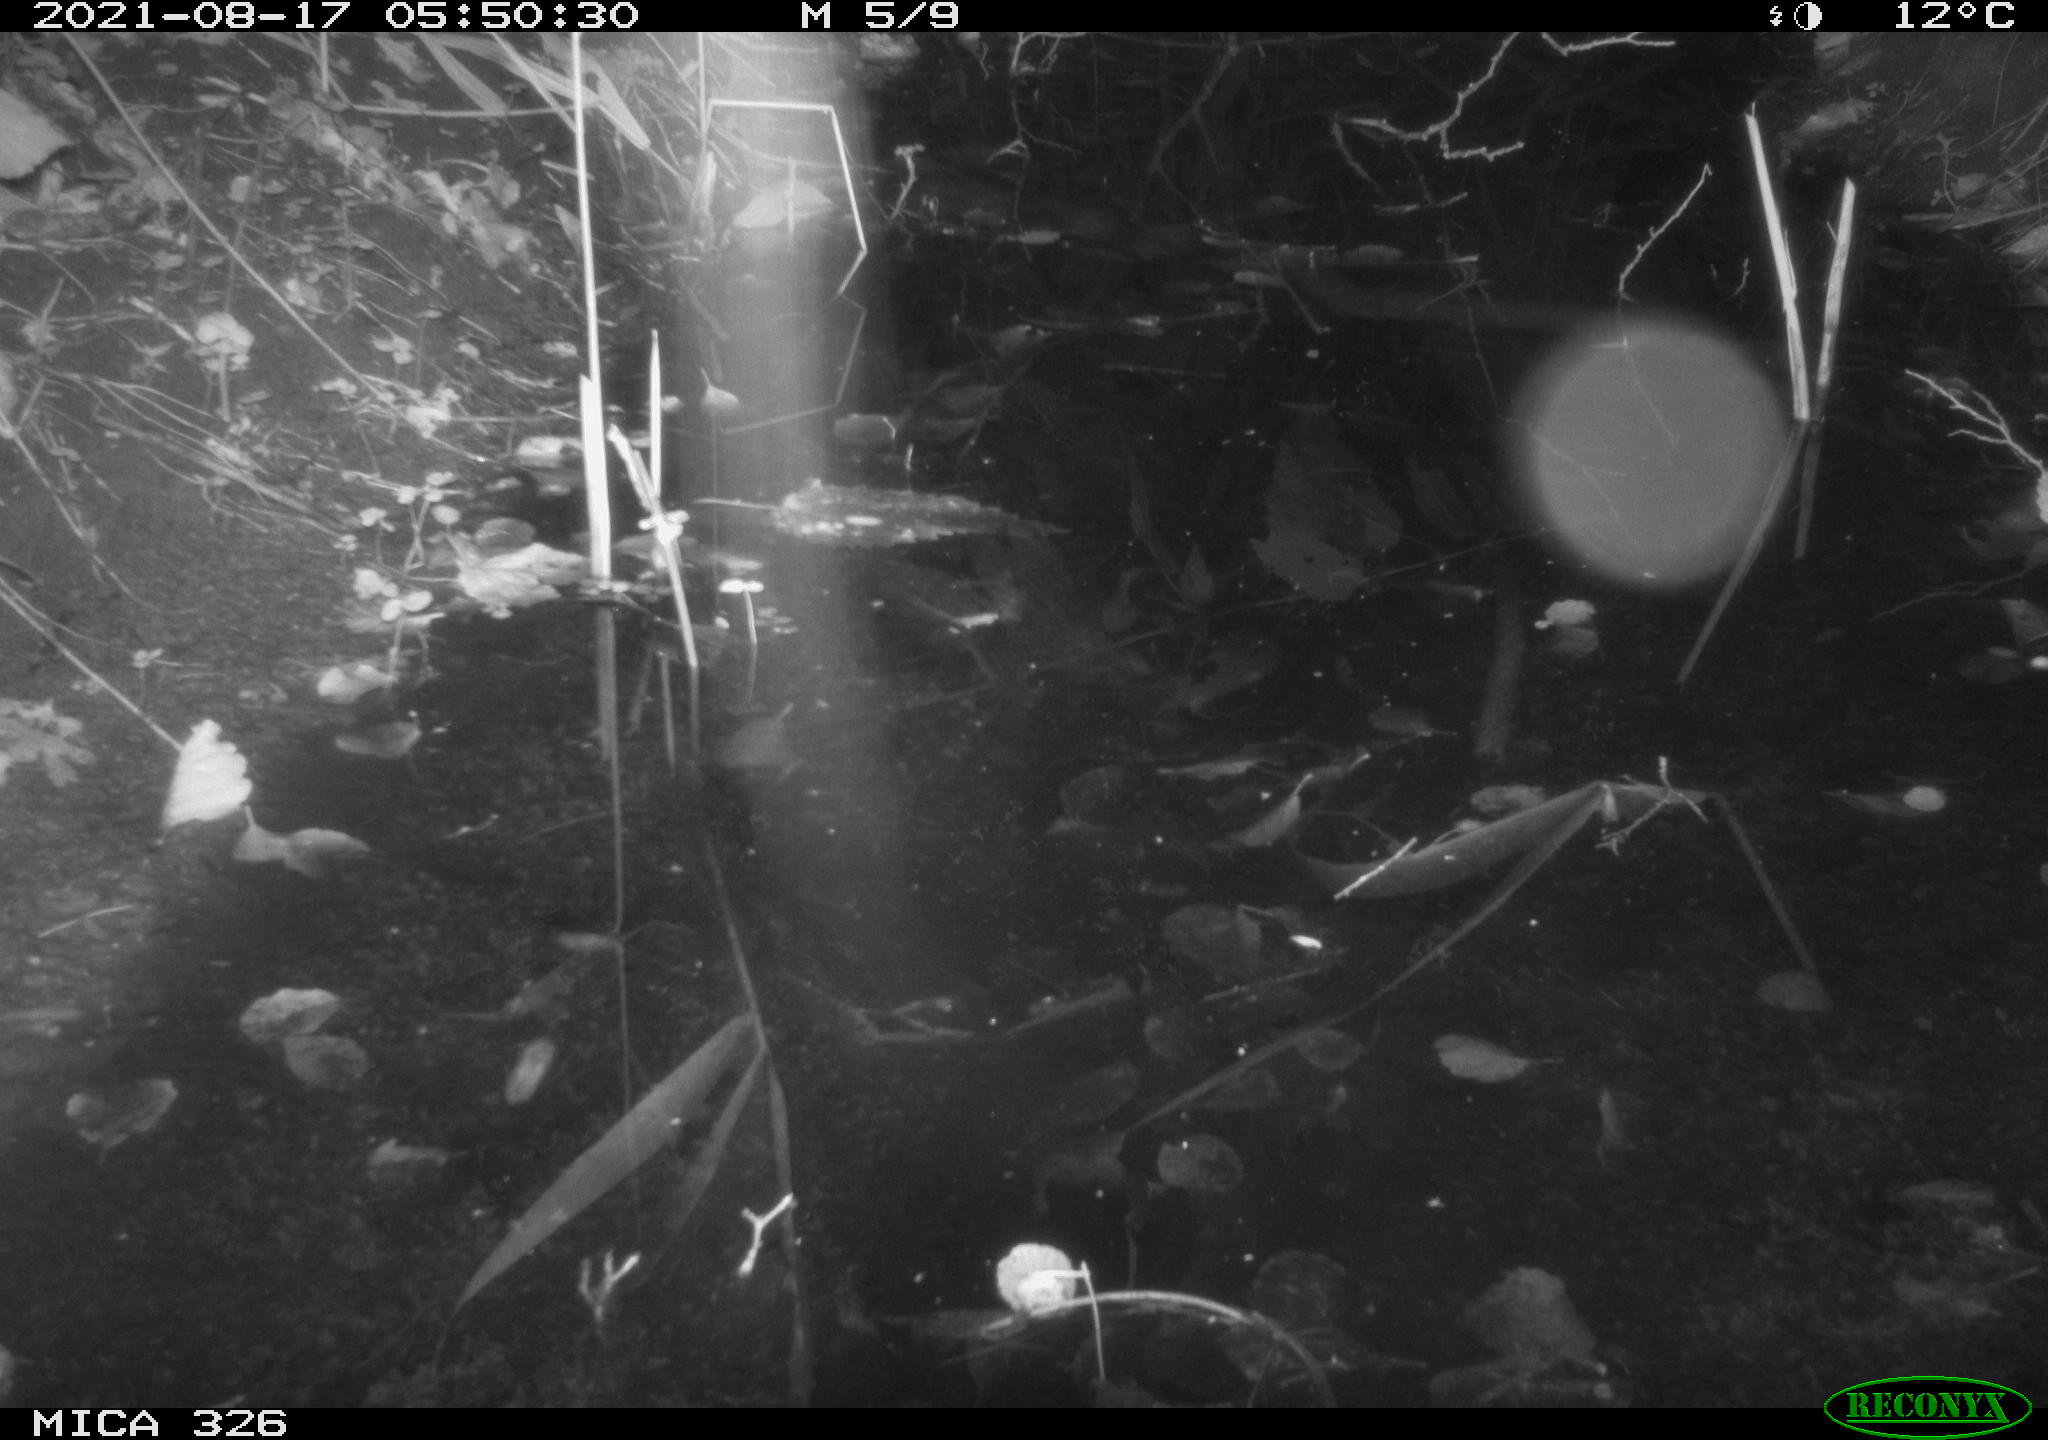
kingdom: Animalia
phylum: Chordata
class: Mammalia
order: Rodentia
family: Muridae
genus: Rattus
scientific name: Rattus norvegicus
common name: Brown rat
